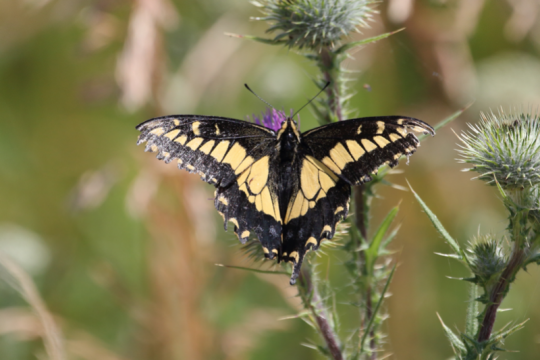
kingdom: Animalia
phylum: Arthropoda
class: Insecta
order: Lepidoptera
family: Papilionidae
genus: Papilio
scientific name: Papilio zelicaon
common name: Anise Swallowtail
